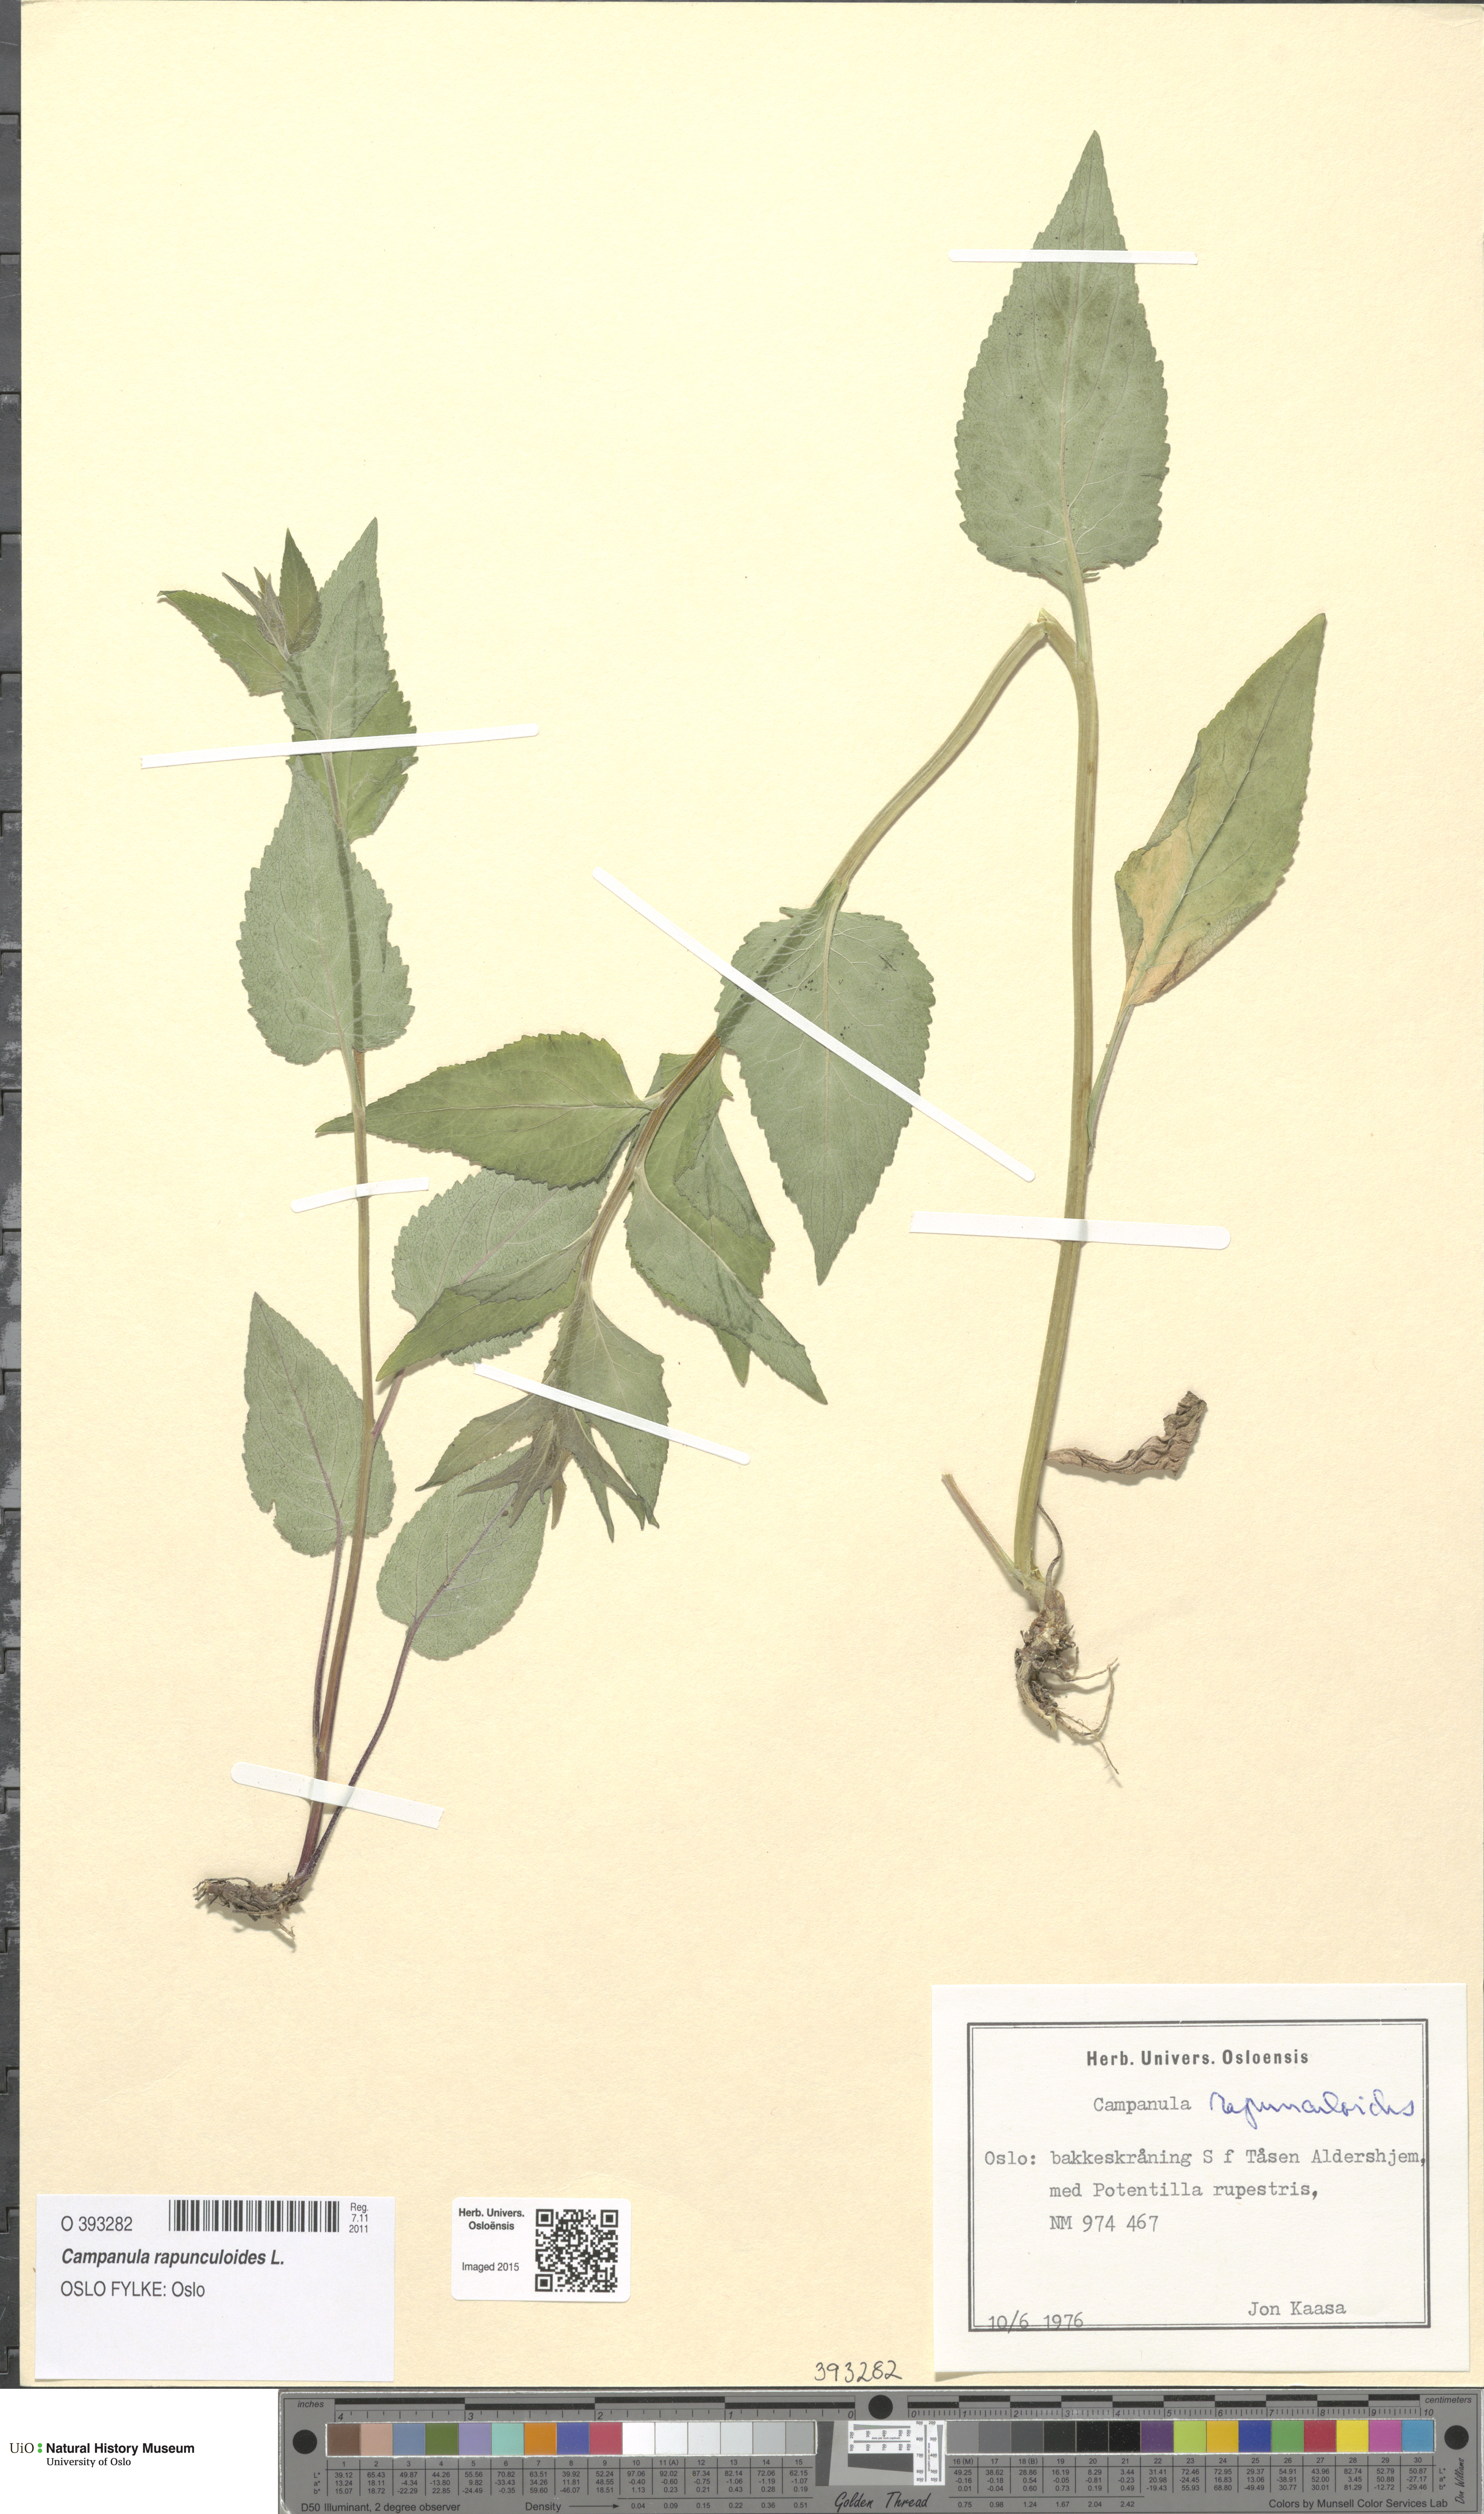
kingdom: Plantae
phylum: Tracheophyta
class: Magnoliopsida
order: Asterales
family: Campanulaceae
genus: Campanula
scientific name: Campanula rapunculoides
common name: Creeping bellflower
